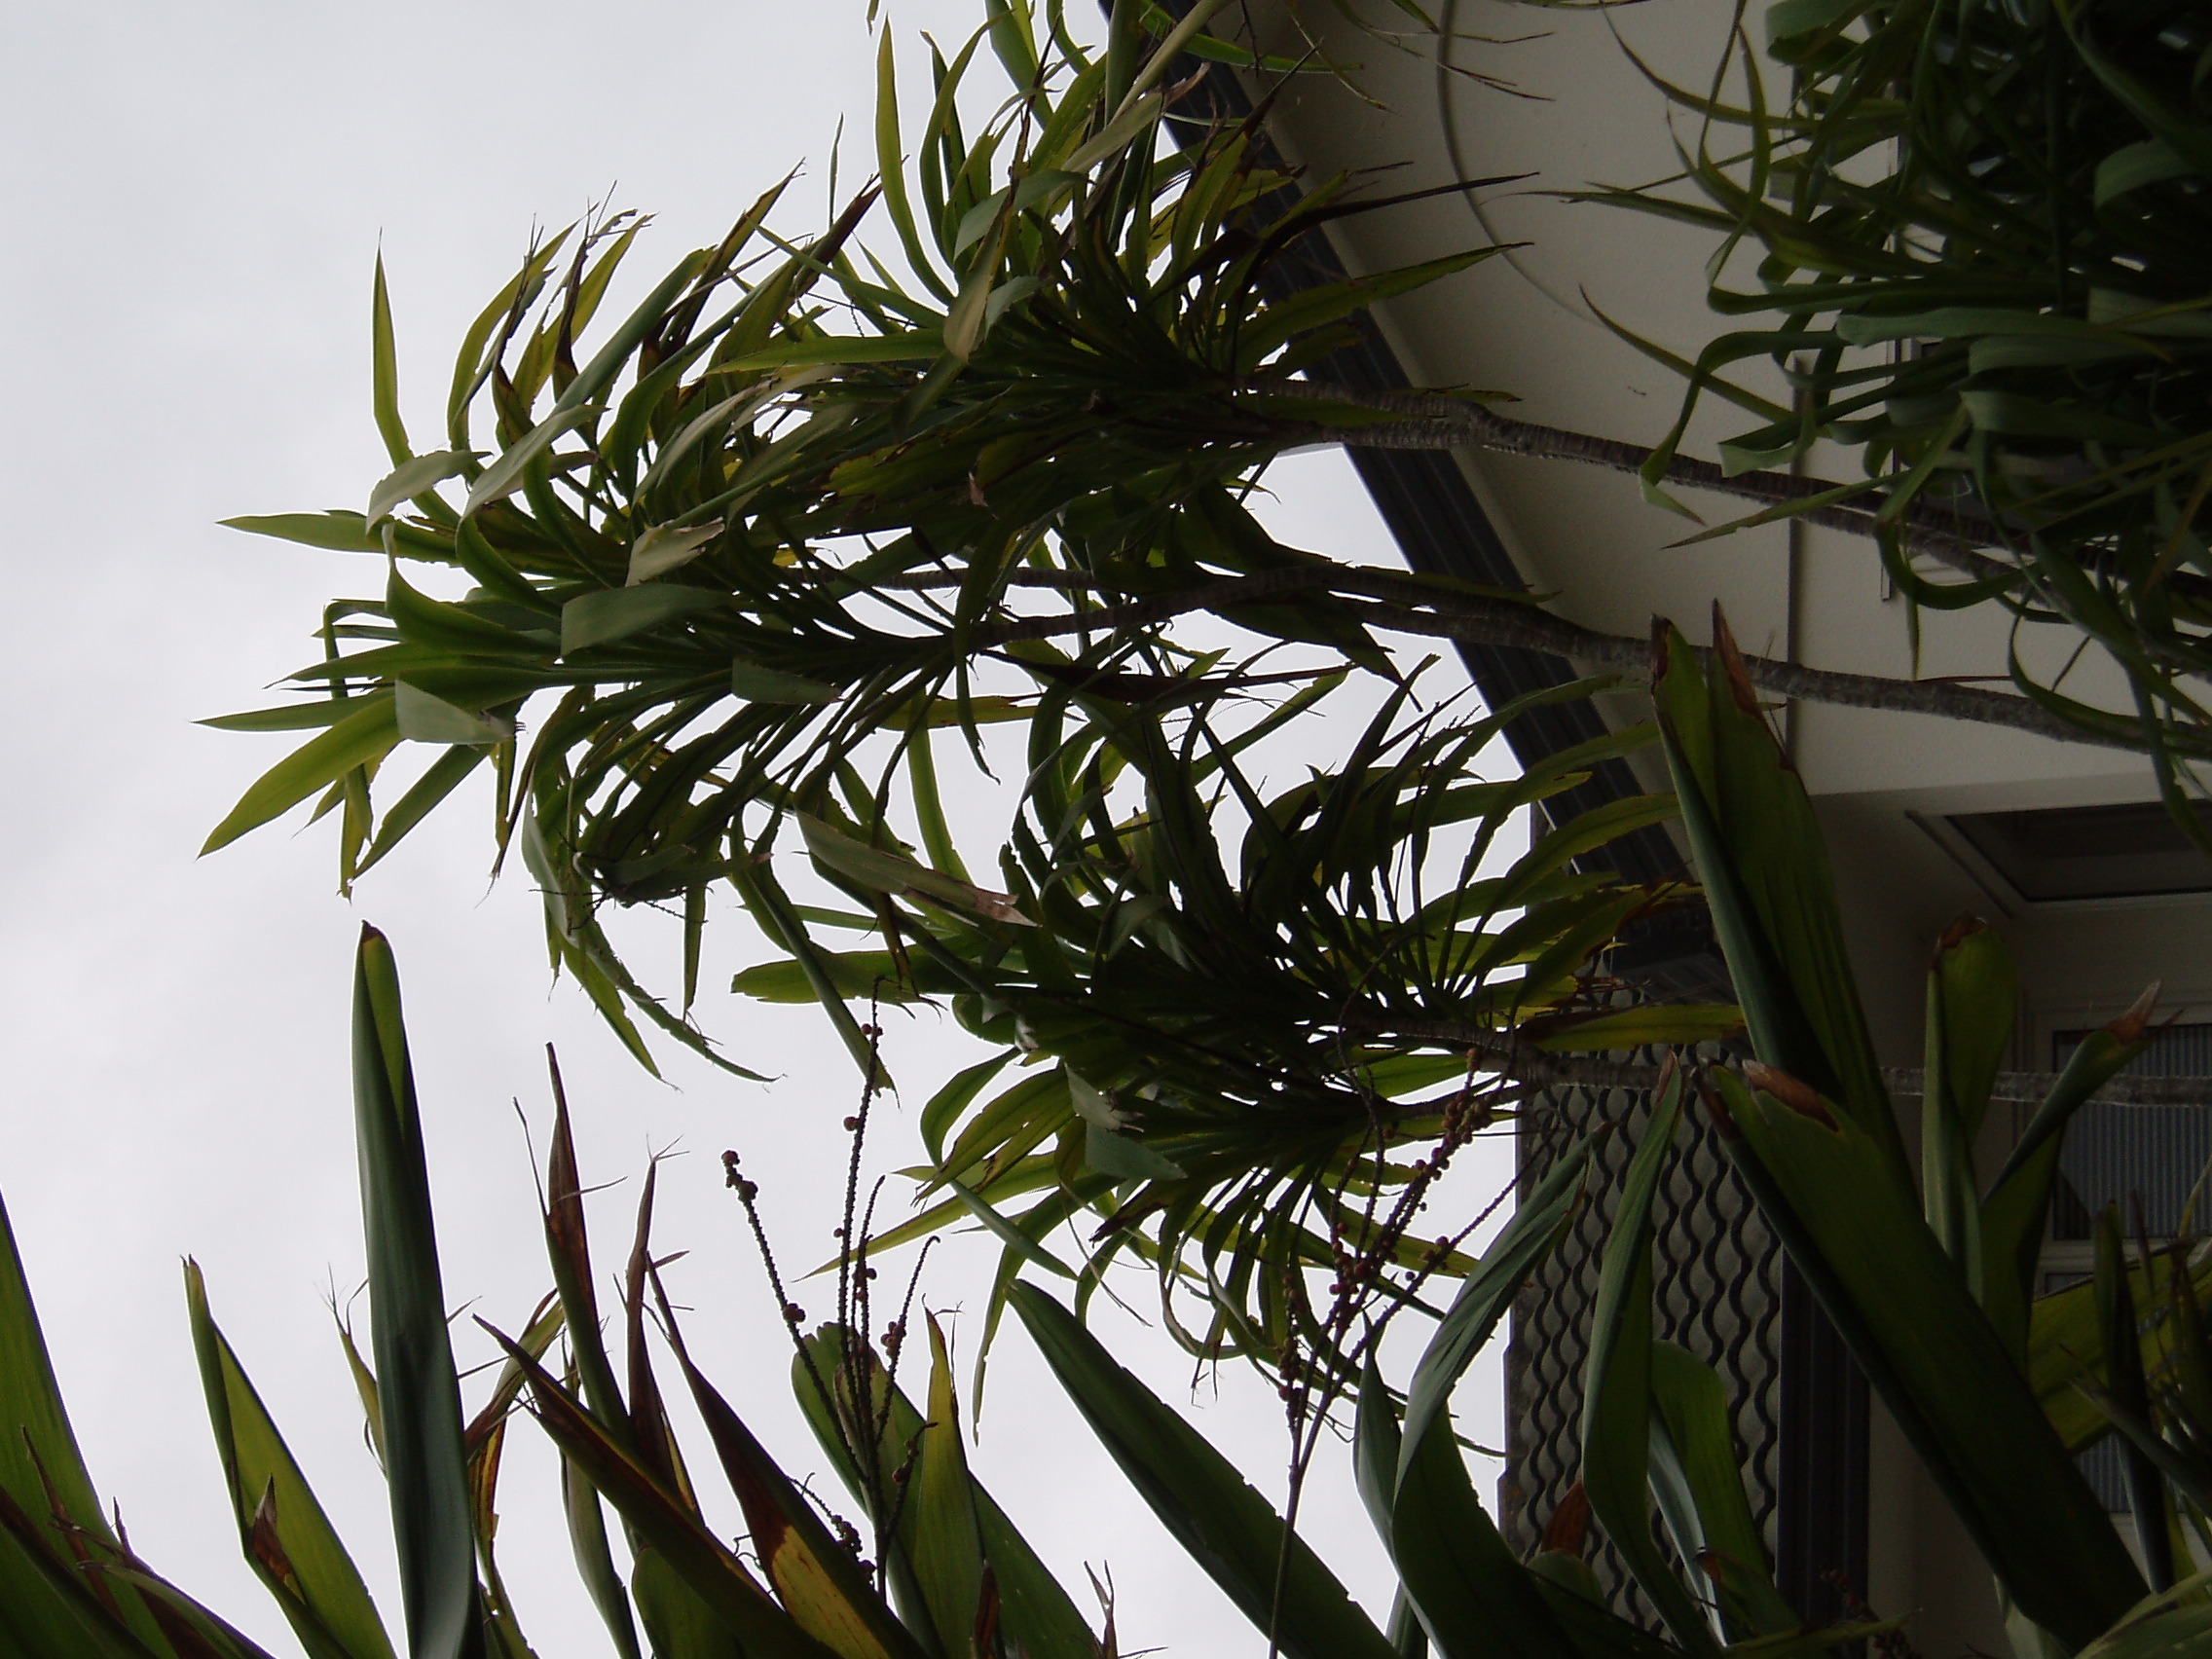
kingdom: Plantae
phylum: Marchantiophyta
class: Jungermanniopsida
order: Porellales
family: Frullaniaceae
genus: Frullania
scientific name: Frullania falciloba
